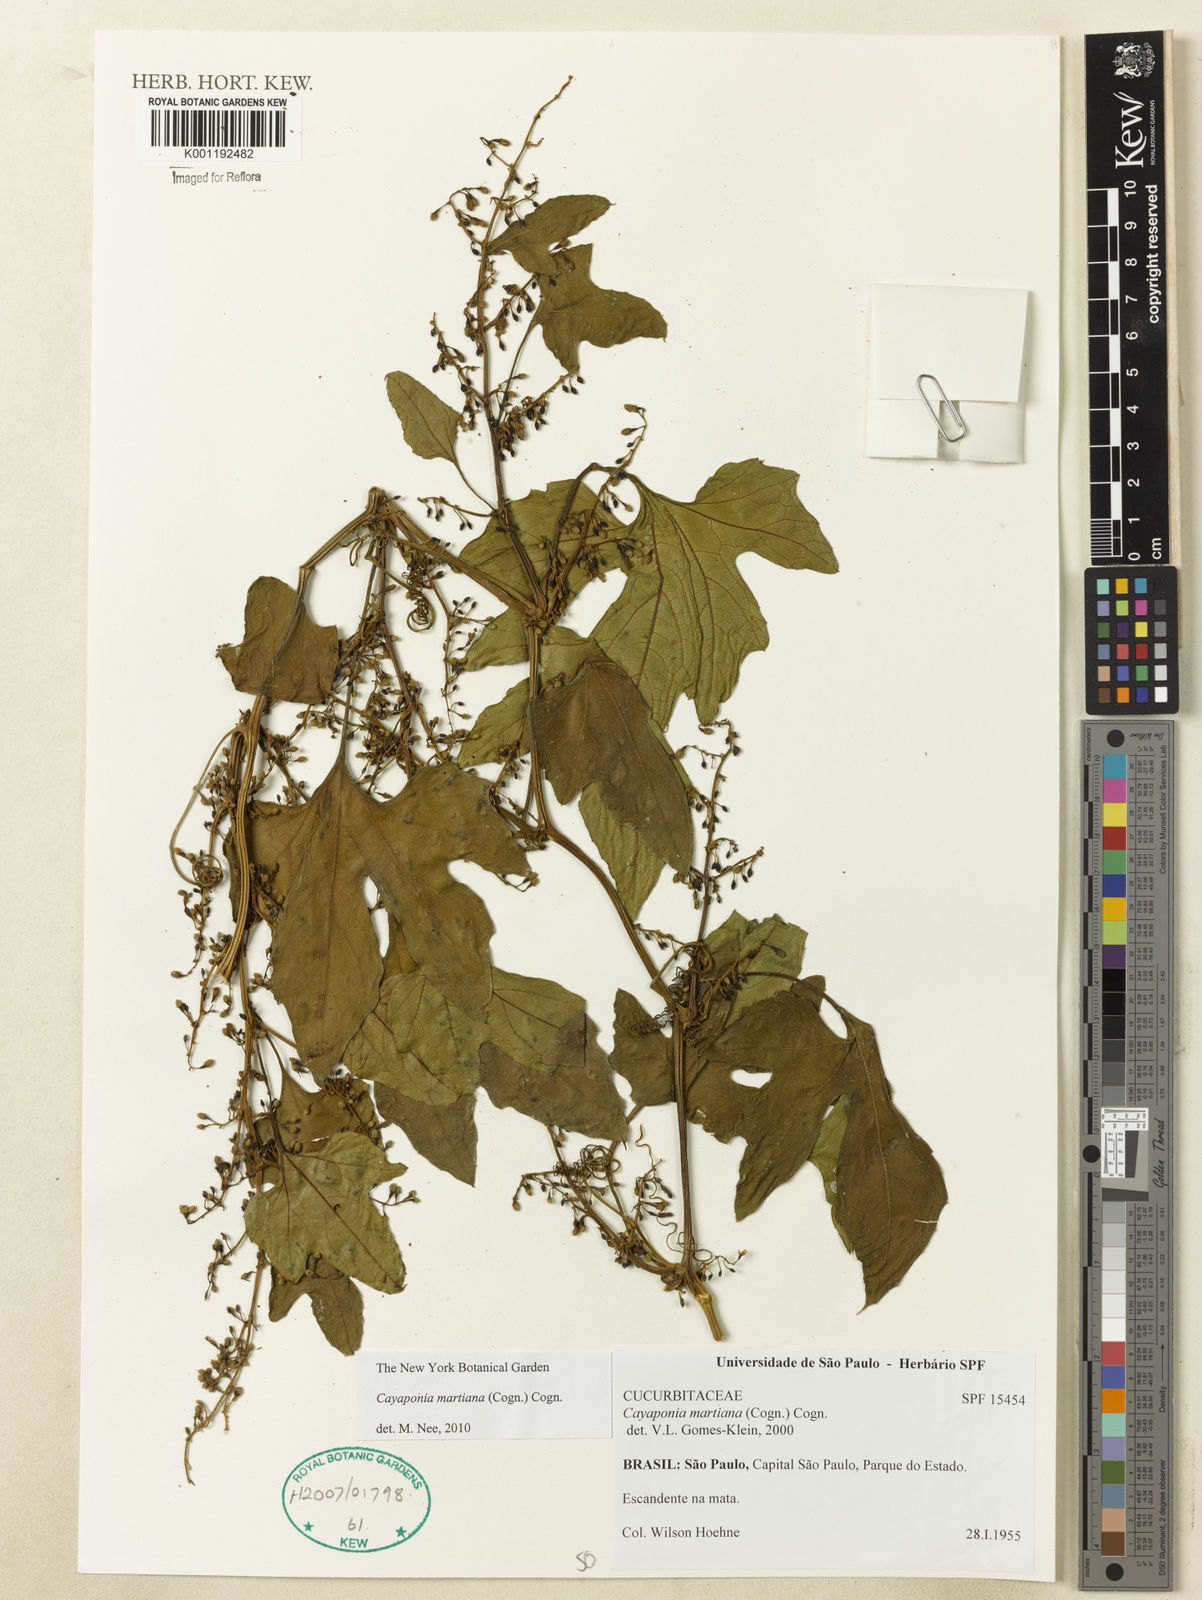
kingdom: Plantae
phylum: Tracheophyta
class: Magnoliopsida
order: Cucurbitales
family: Cucurbitaceae
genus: Cayaponia
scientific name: Cayaponia martiana
